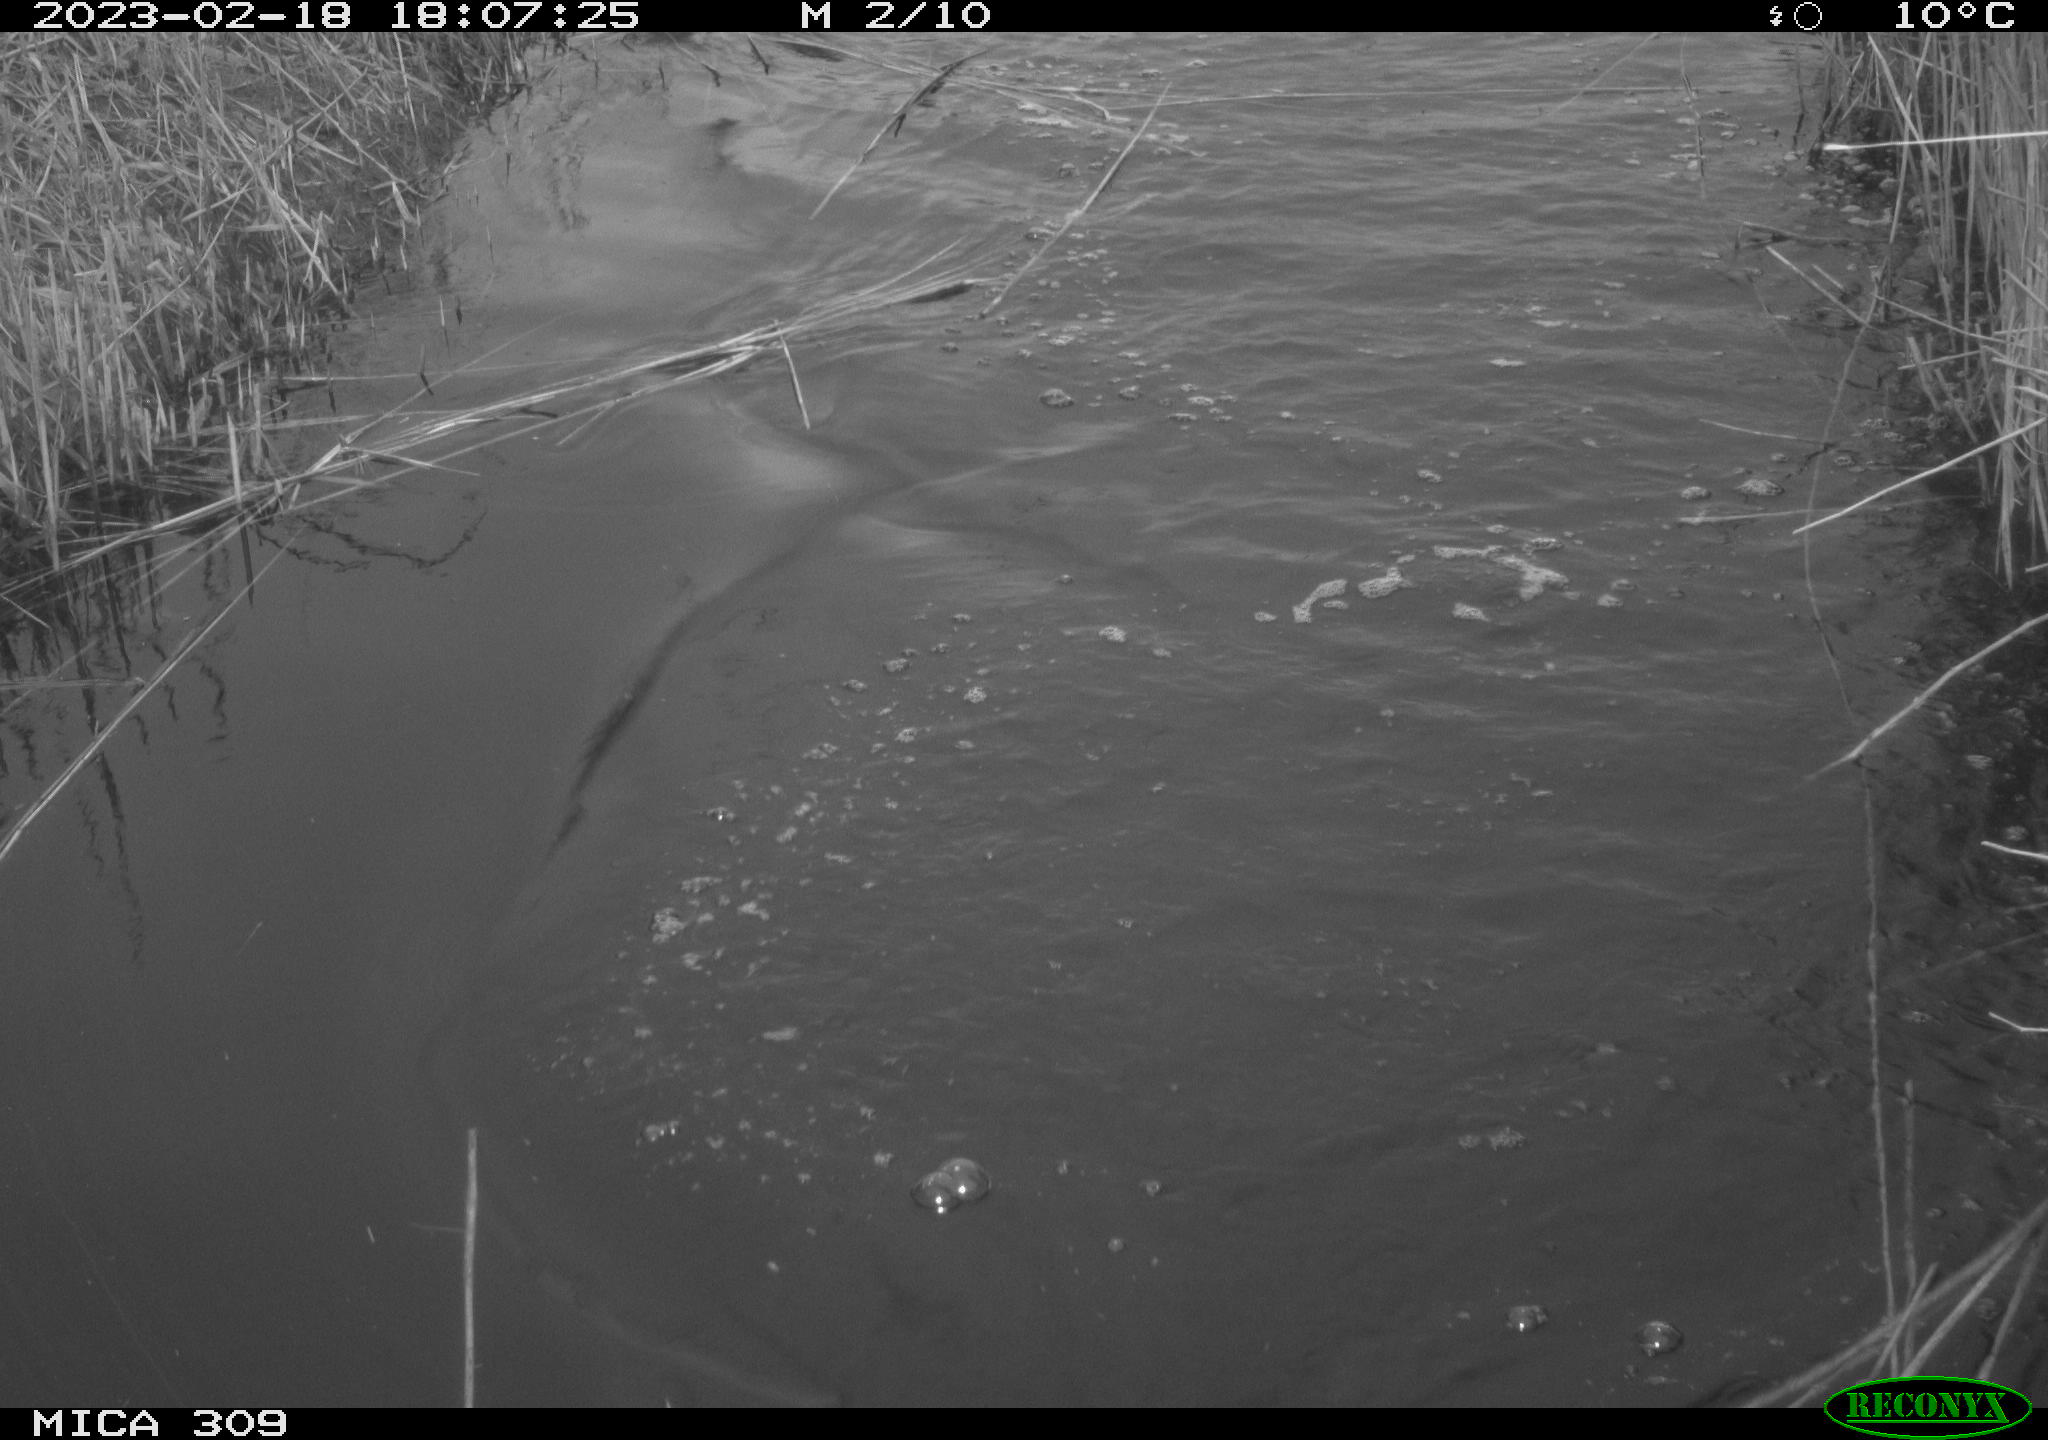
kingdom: Animalia
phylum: Chordata
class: Aves
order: Gruiformes
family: Rallidae
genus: Fulica
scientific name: Fulica atra
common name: Eurasian coot
